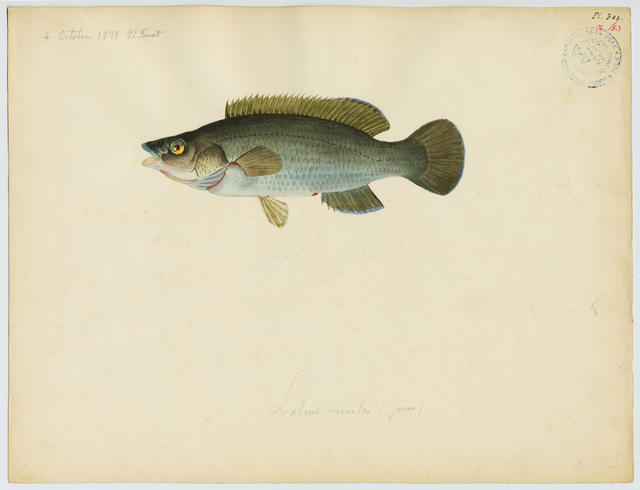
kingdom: Animalia
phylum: Chordata
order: Perciformes
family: Labridae
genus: Labrus
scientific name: Labrus merula
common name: Brown wrasse
